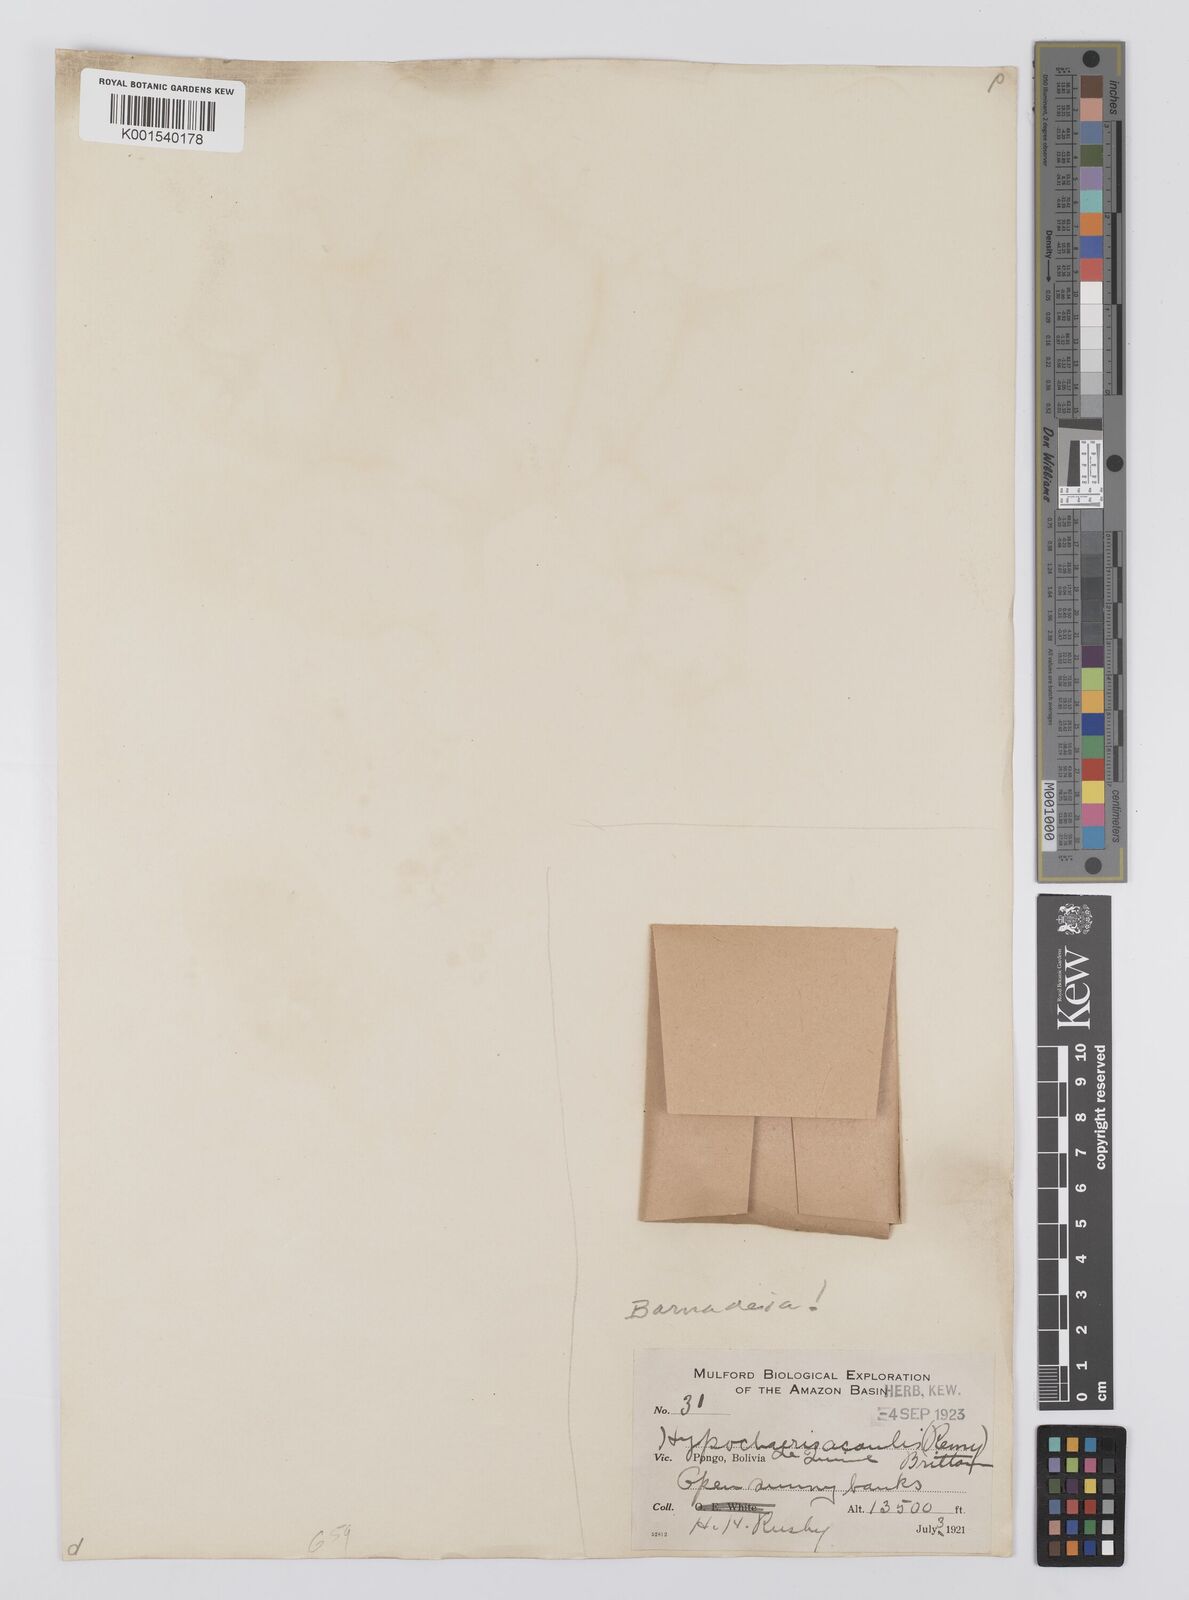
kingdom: Plantae
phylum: Tracheophyta
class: Magnoliopsida
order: Asterales
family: Asteraceae
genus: Barnadesia
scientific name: Barnadesia
